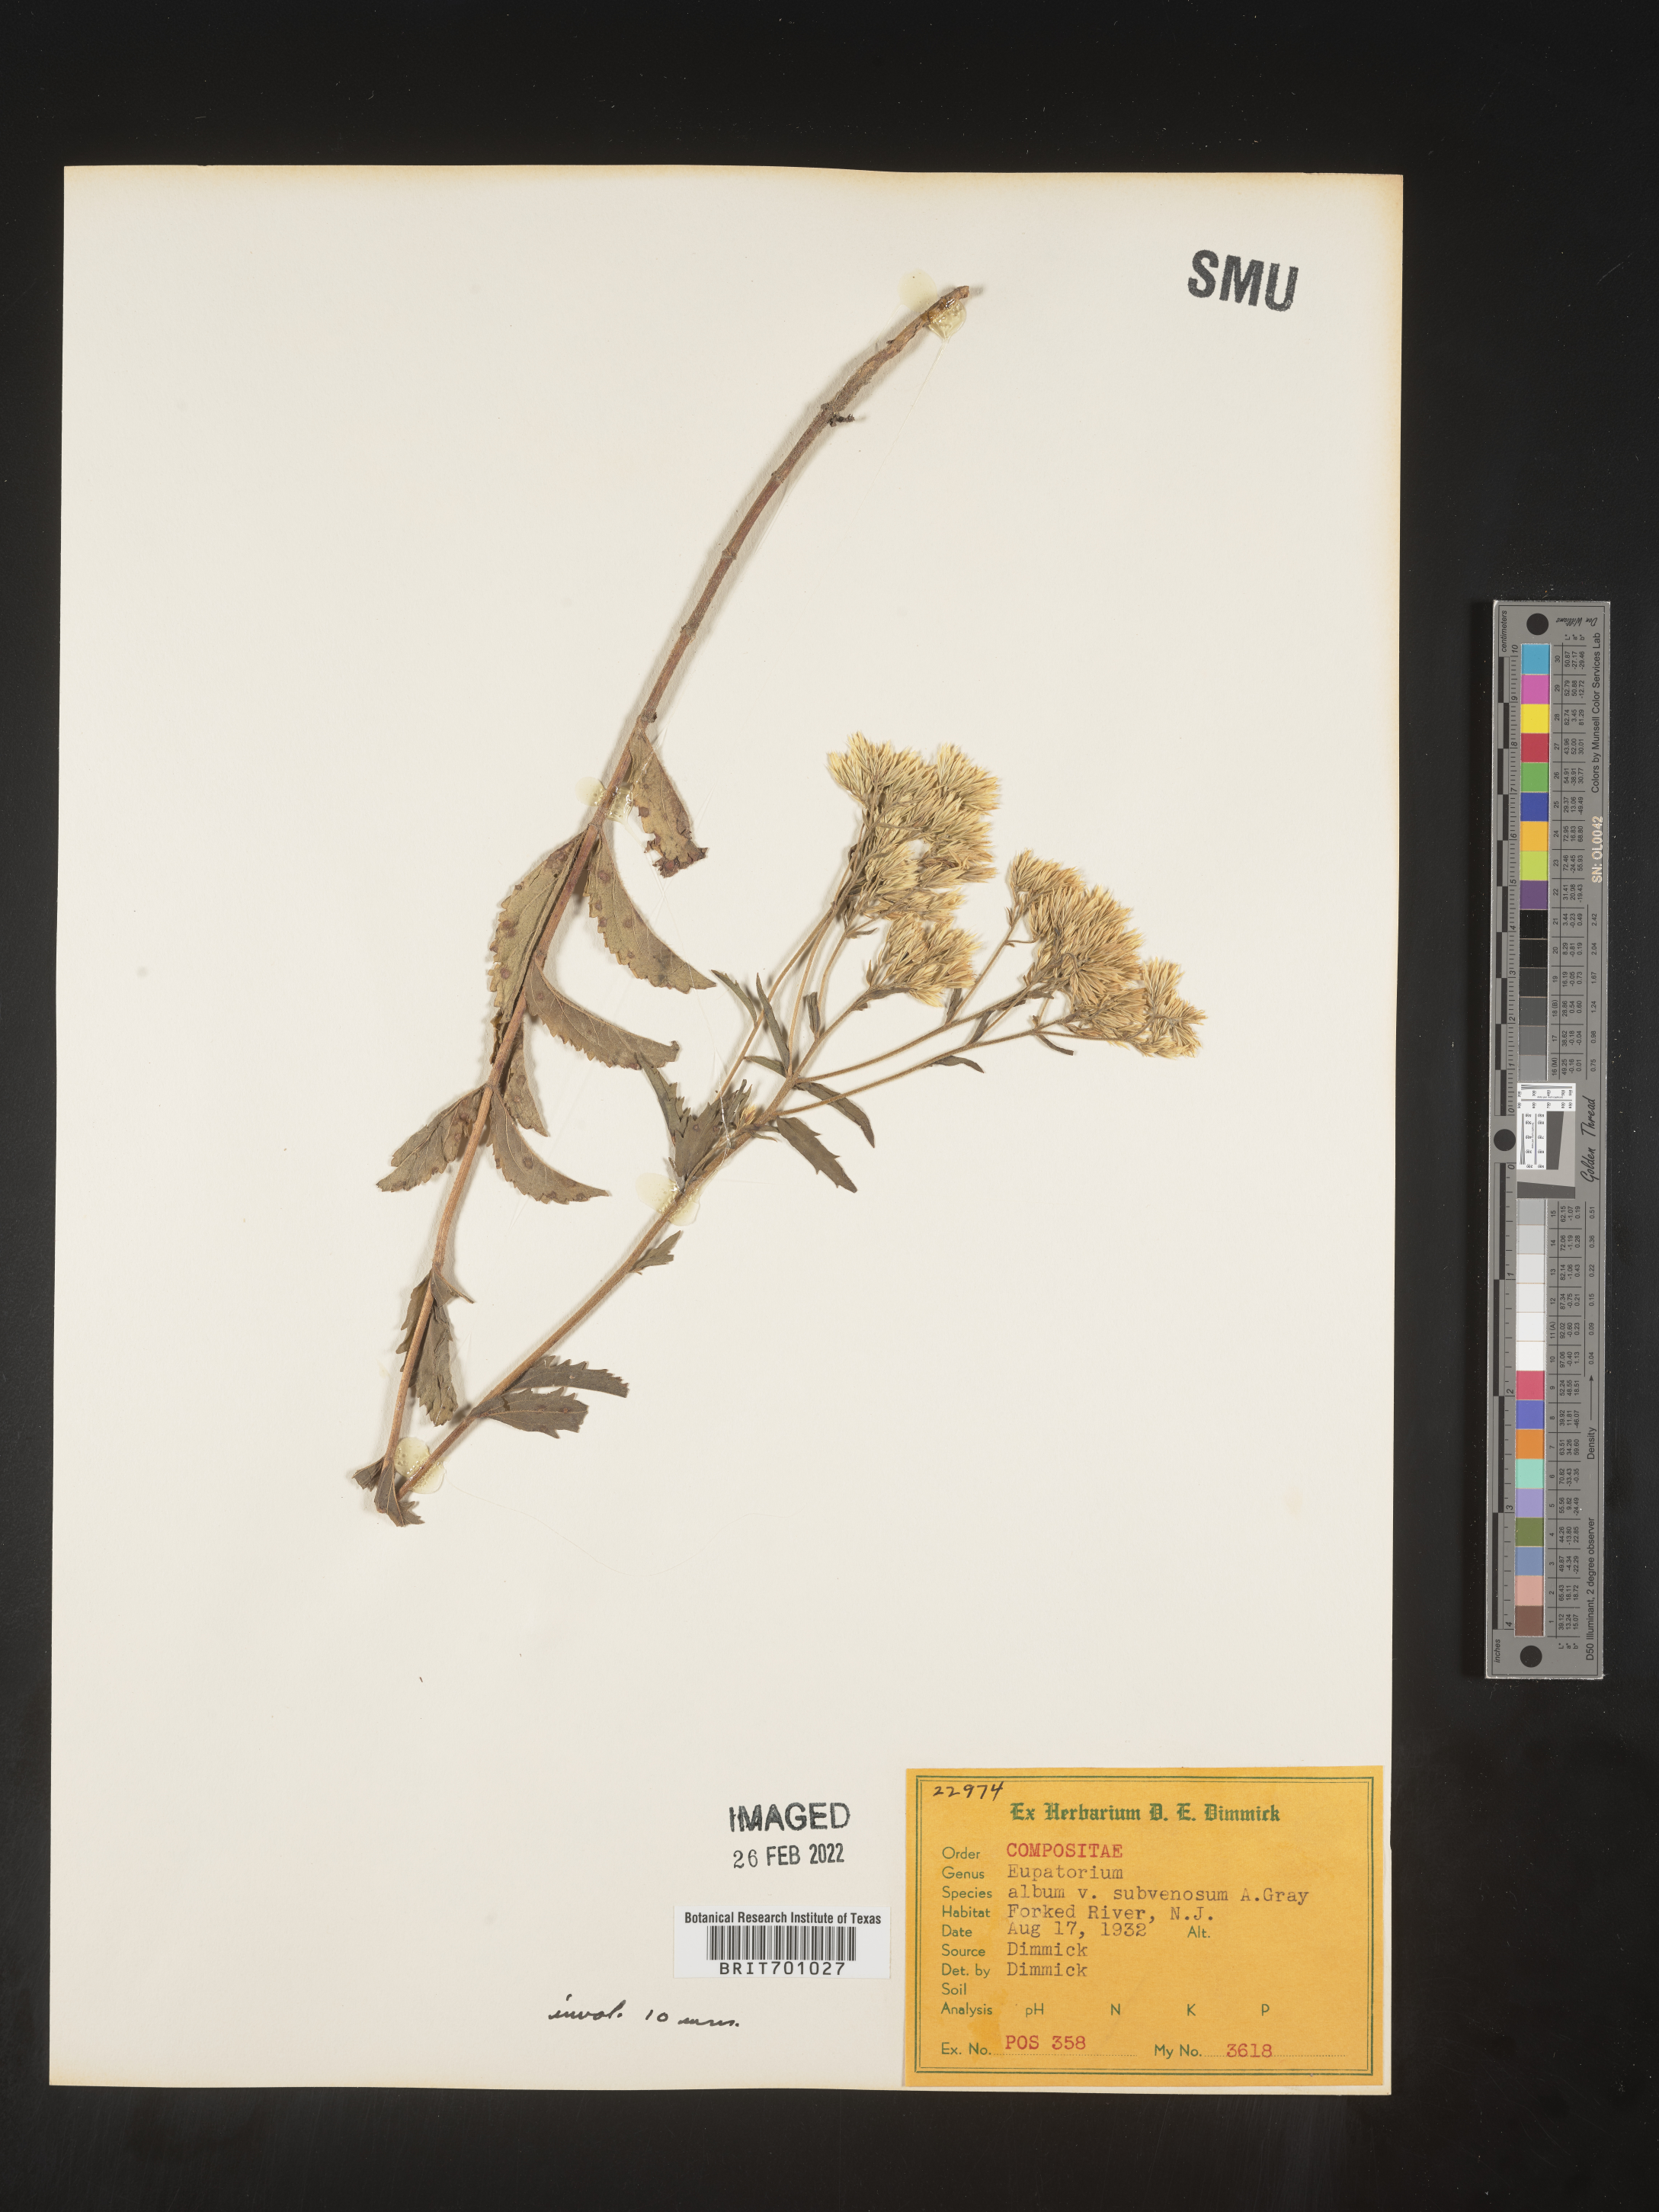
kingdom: Plantae
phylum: Tracheophyta
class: Magnoliopsida
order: Asterales
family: Asteraceae
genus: Eupatorium
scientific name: Eupatorium album
